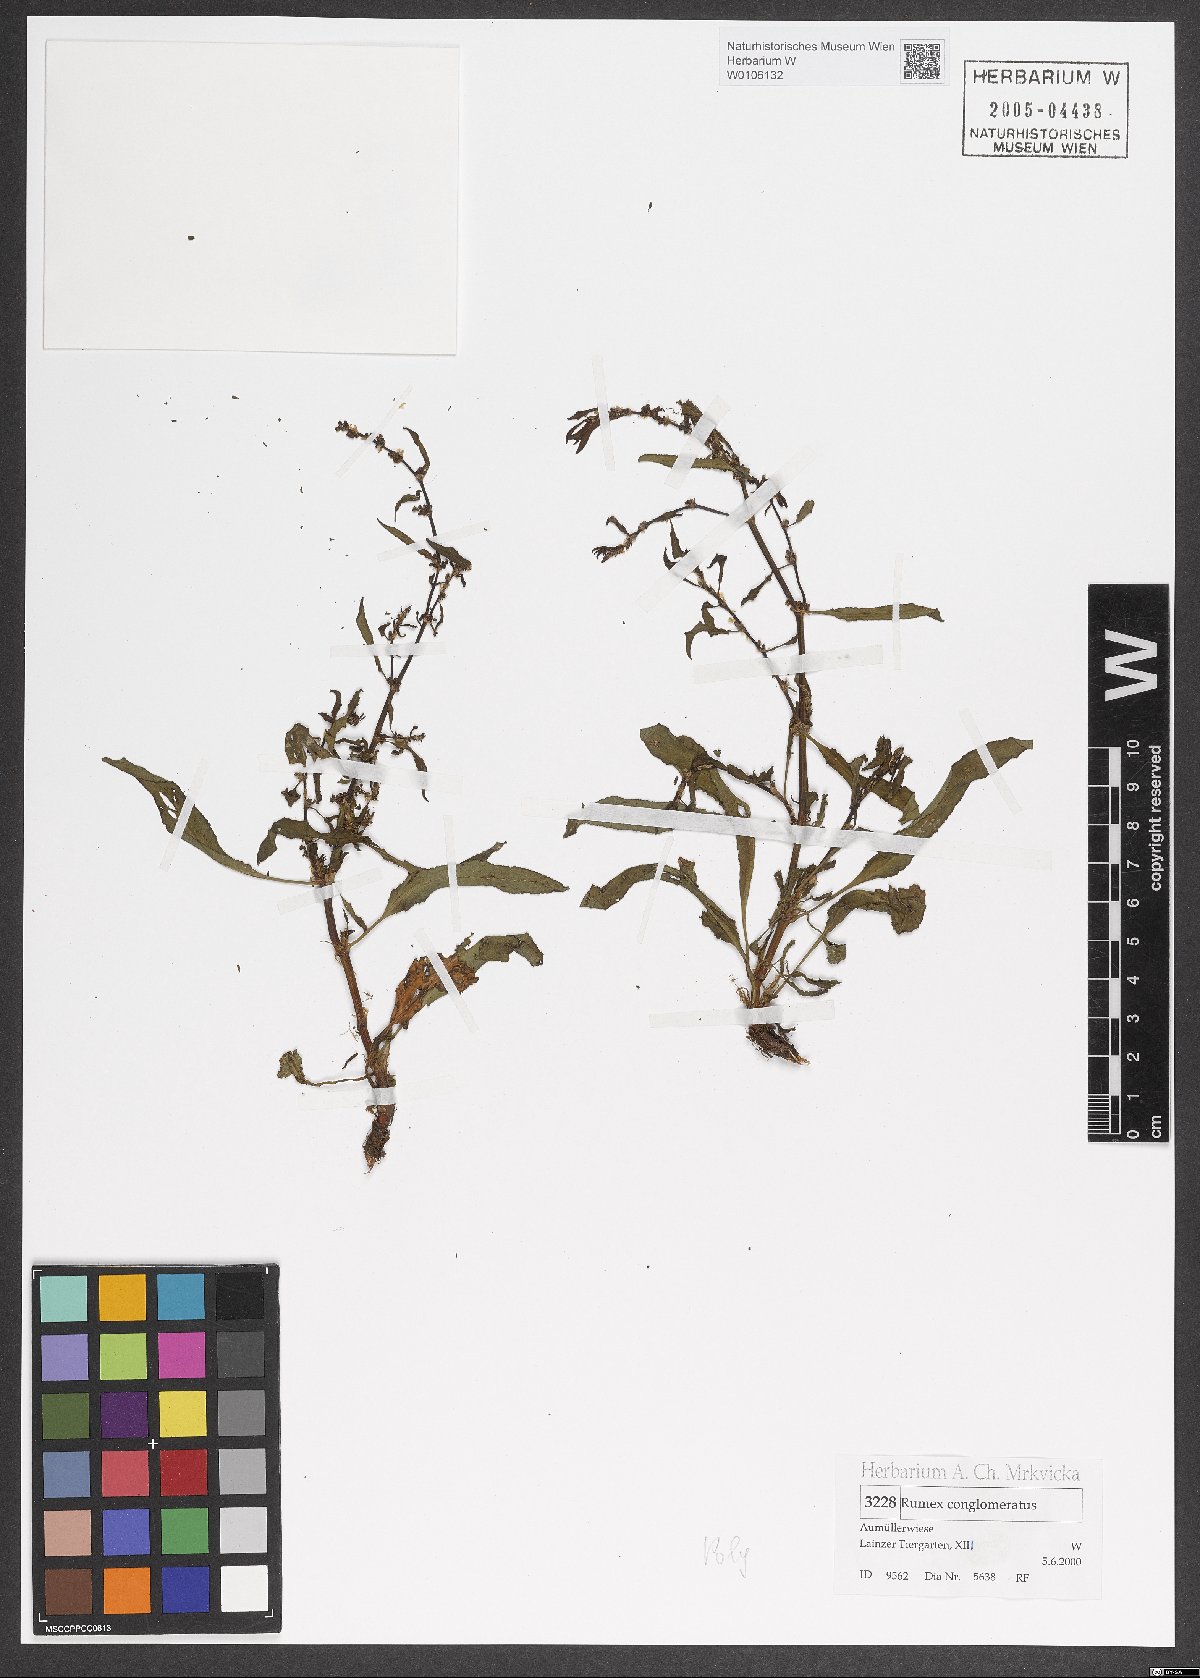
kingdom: Plantae
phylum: Tracheophyta
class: Magnoliopsida
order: Caryophyllales
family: Polygonaceae
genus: Rumex
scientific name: Rumex conglomeratus
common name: Clustered dock
